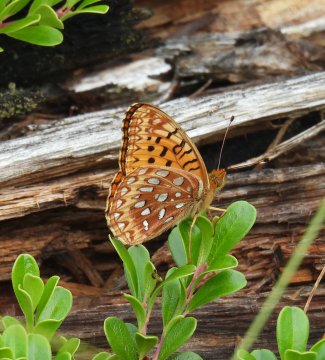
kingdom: Animalia
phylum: Arthropoda
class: Insecta
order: Lepidoptera
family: Nymphalidae
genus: Speyeria
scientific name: Speyeria mormonia
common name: Mormon Fritillary
